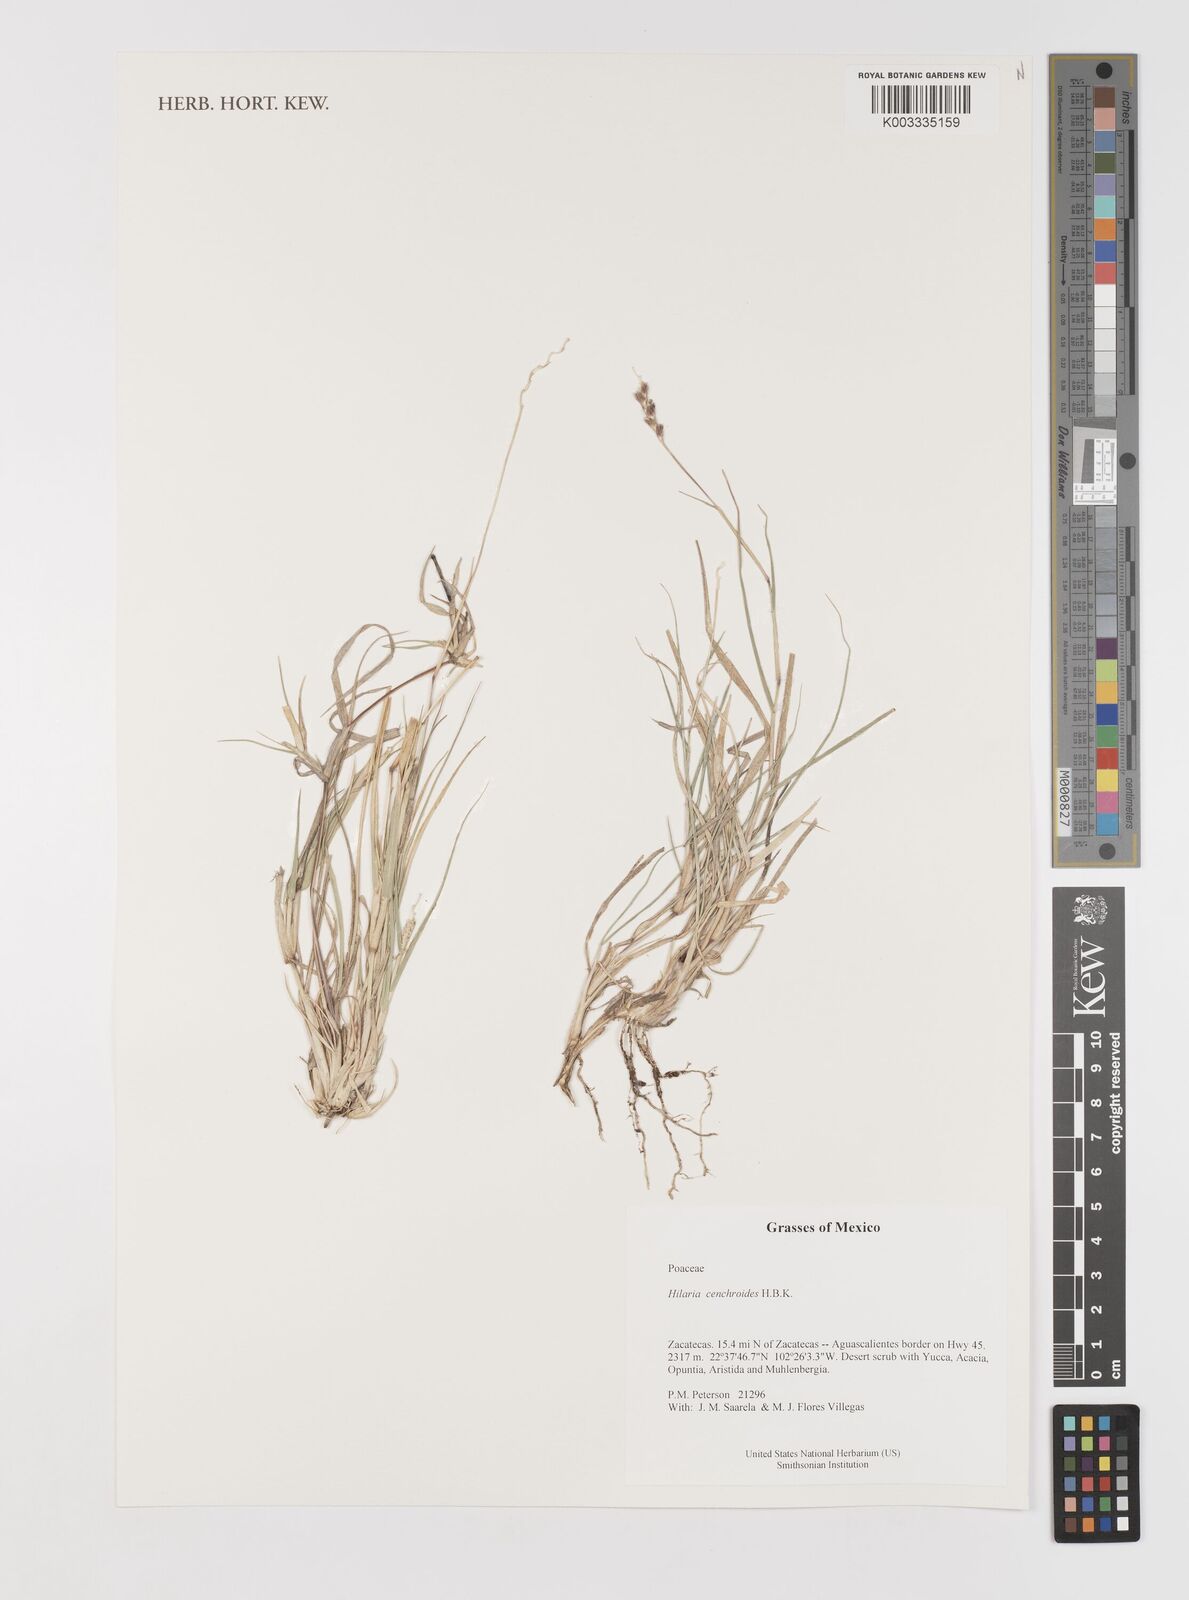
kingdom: Plantae
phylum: Tracheophyta
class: Liliopsida
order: Poales
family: Poaceae
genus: Hilaria
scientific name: Hilaria cenchroides
